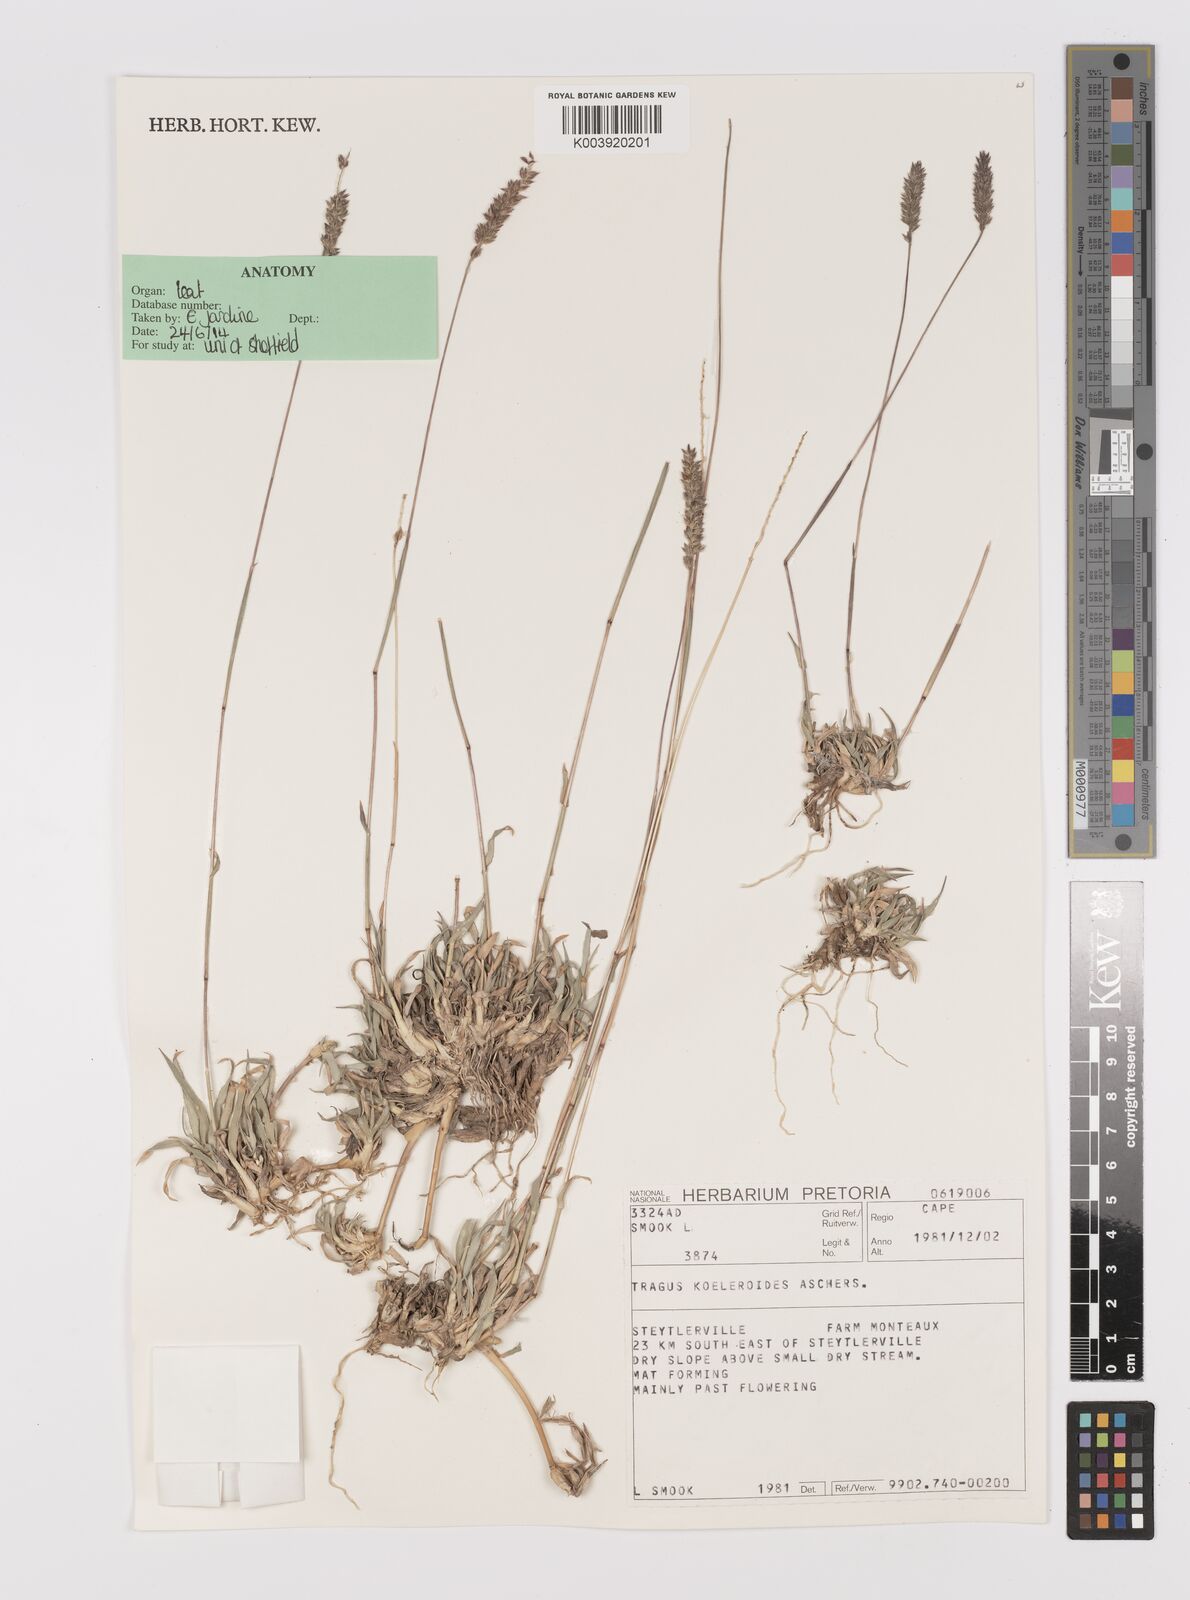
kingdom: Plantae
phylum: Tracheophyta
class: Liliopsida
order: Poales
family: Poaceae
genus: Tragus
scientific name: Tragus koelerioides
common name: Creeping carrot-seed grass
